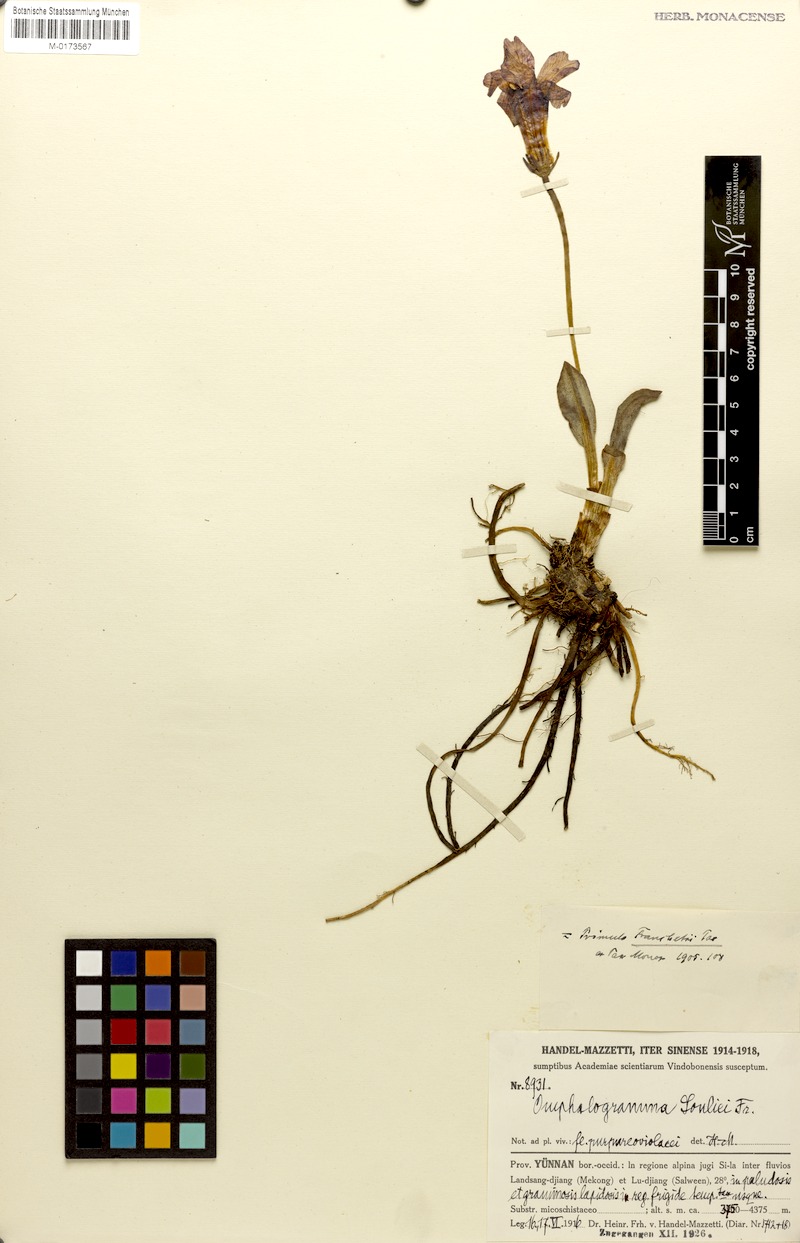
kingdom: Plantae
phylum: Tracheophyta
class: Magnoliopsida
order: Ericales
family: Primulaceae
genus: Omphalogramma
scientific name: Omphalogramma souliei
